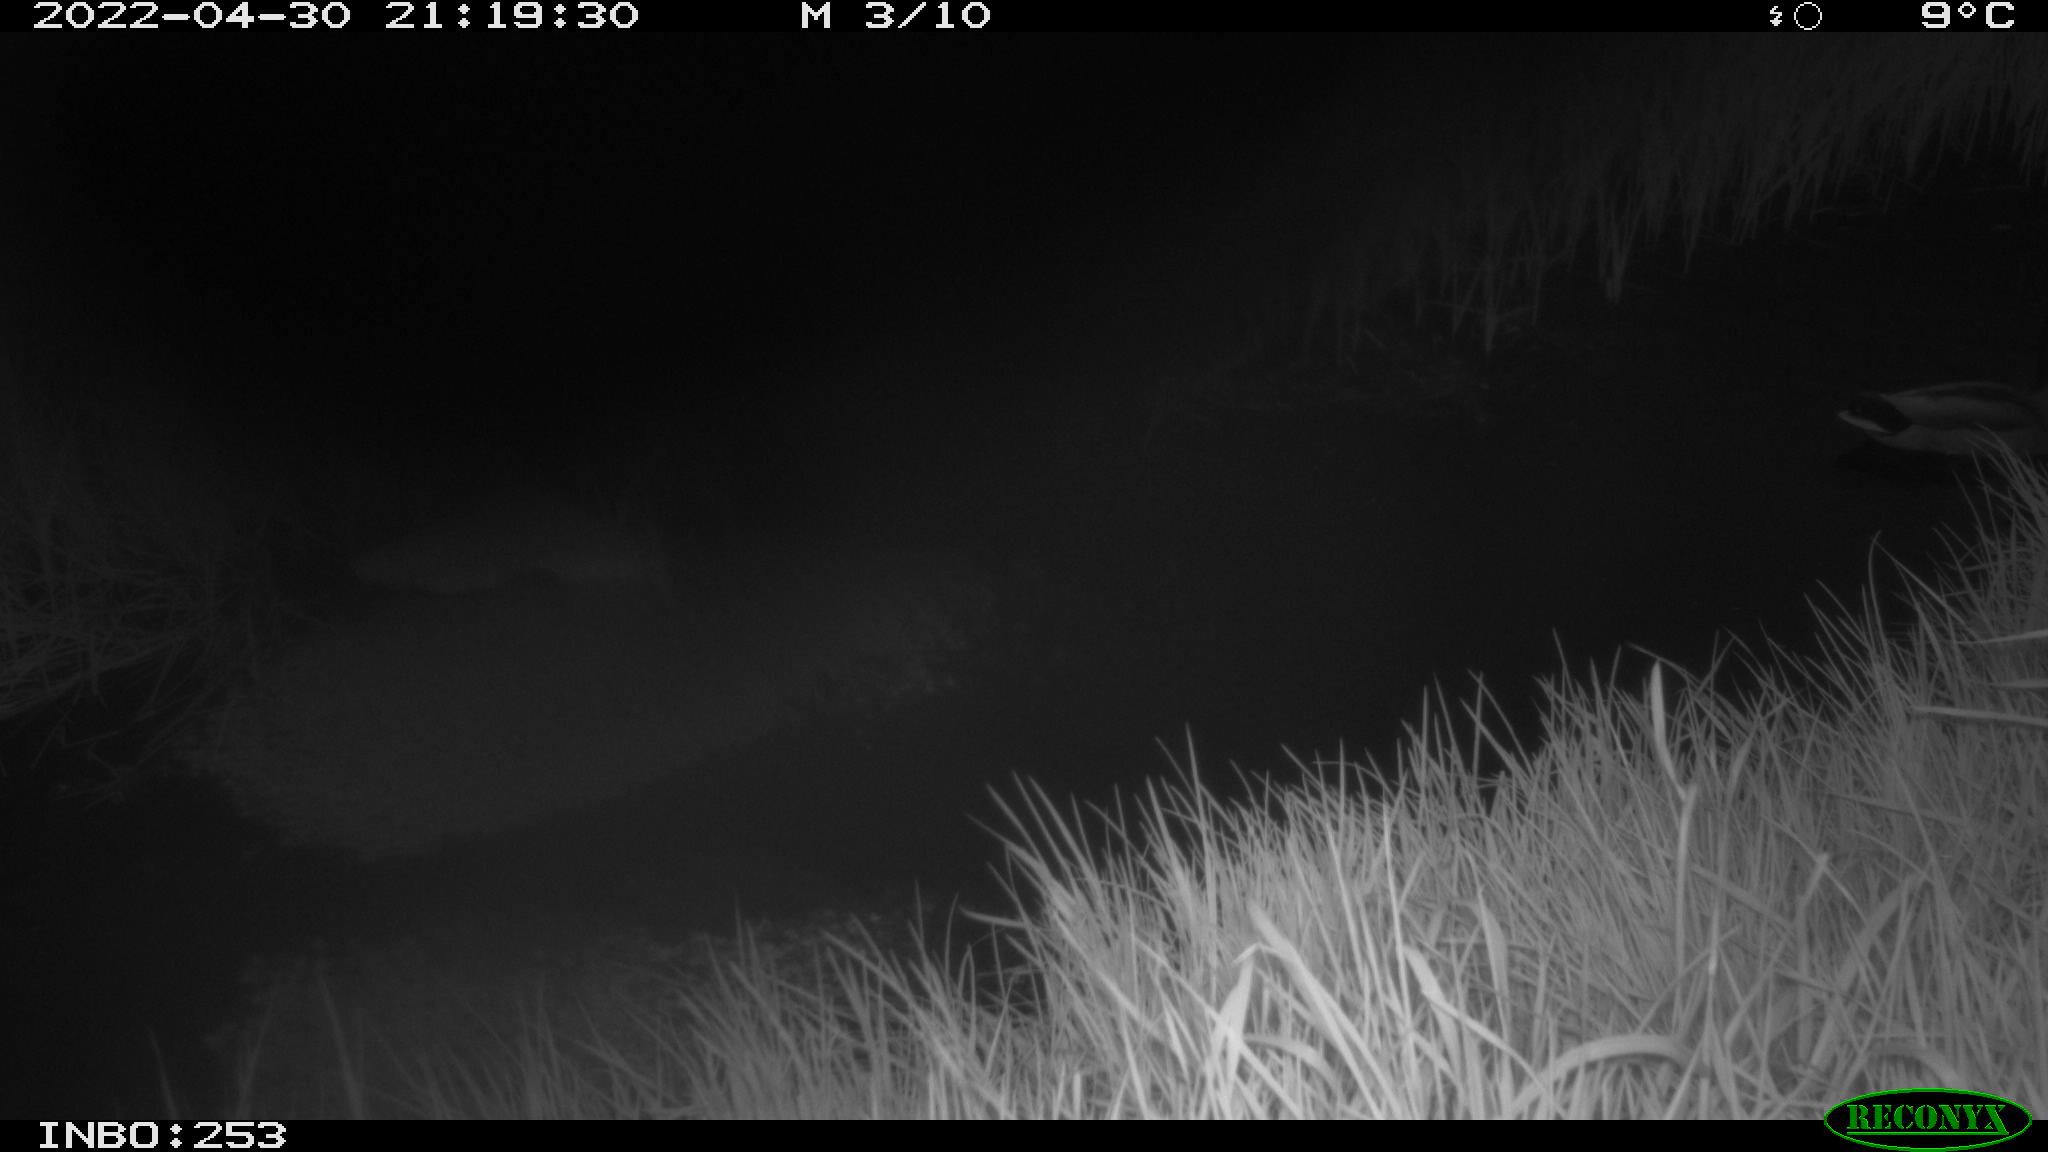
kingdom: Animalia
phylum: Chordata
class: Aves
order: Anseriformes
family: Anatidae
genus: Anas
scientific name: Anas platyrhynchos
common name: Mallard
